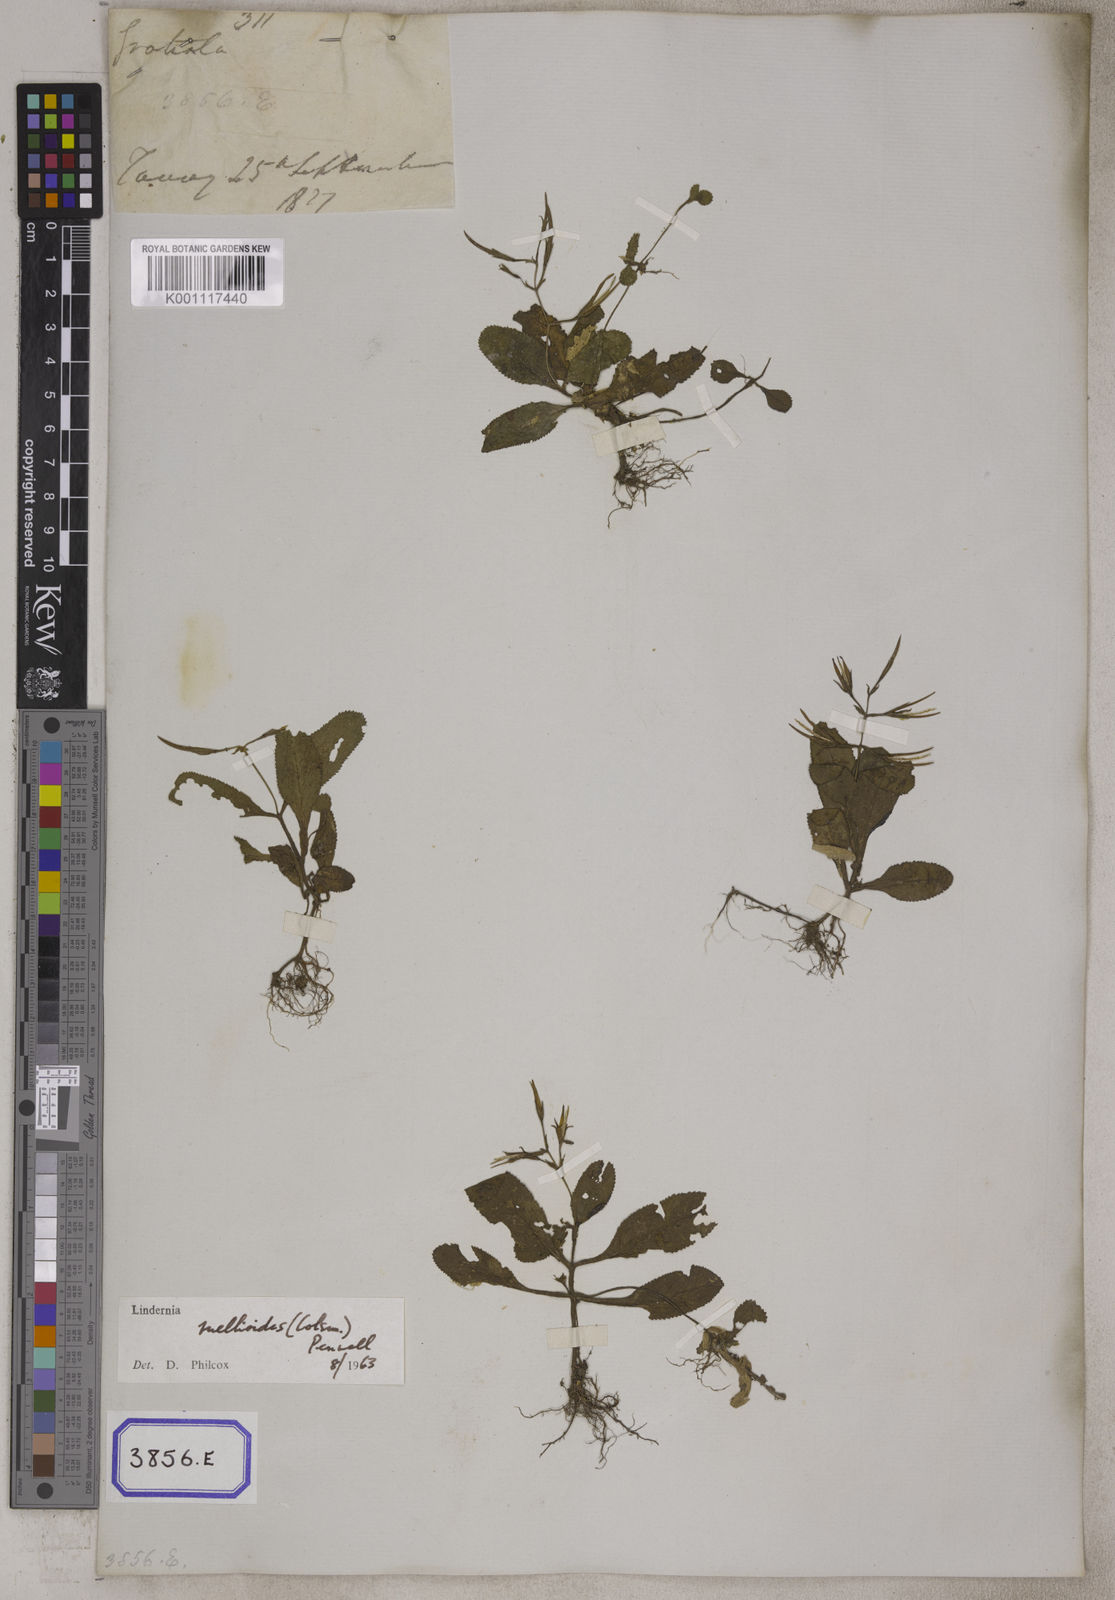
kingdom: Plantae
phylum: Tracheophyta
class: Magnoliopsida
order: Lamiales
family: Linderniaceae
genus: Bonnaya
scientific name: Bonnaya ruellioides
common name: Duckbill pimpernel
